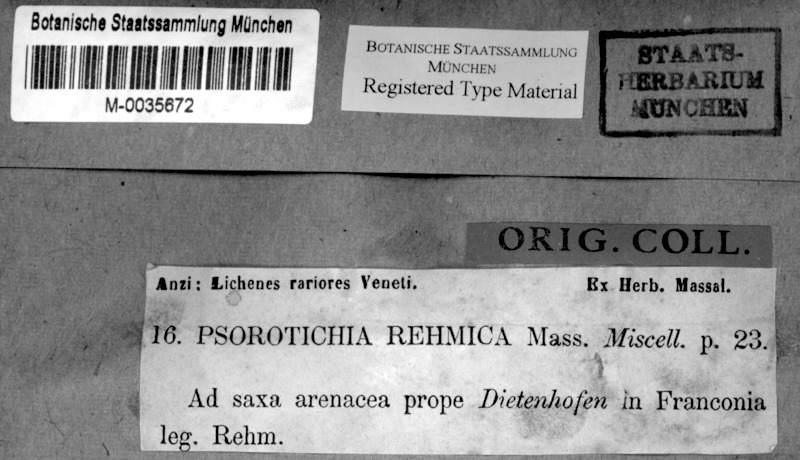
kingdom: Fungi
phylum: Ascomycota
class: Lichinomycetes
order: Lichinales
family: Lichinaceae
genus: Porocyphus
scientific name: Porocyphus rehmicus
